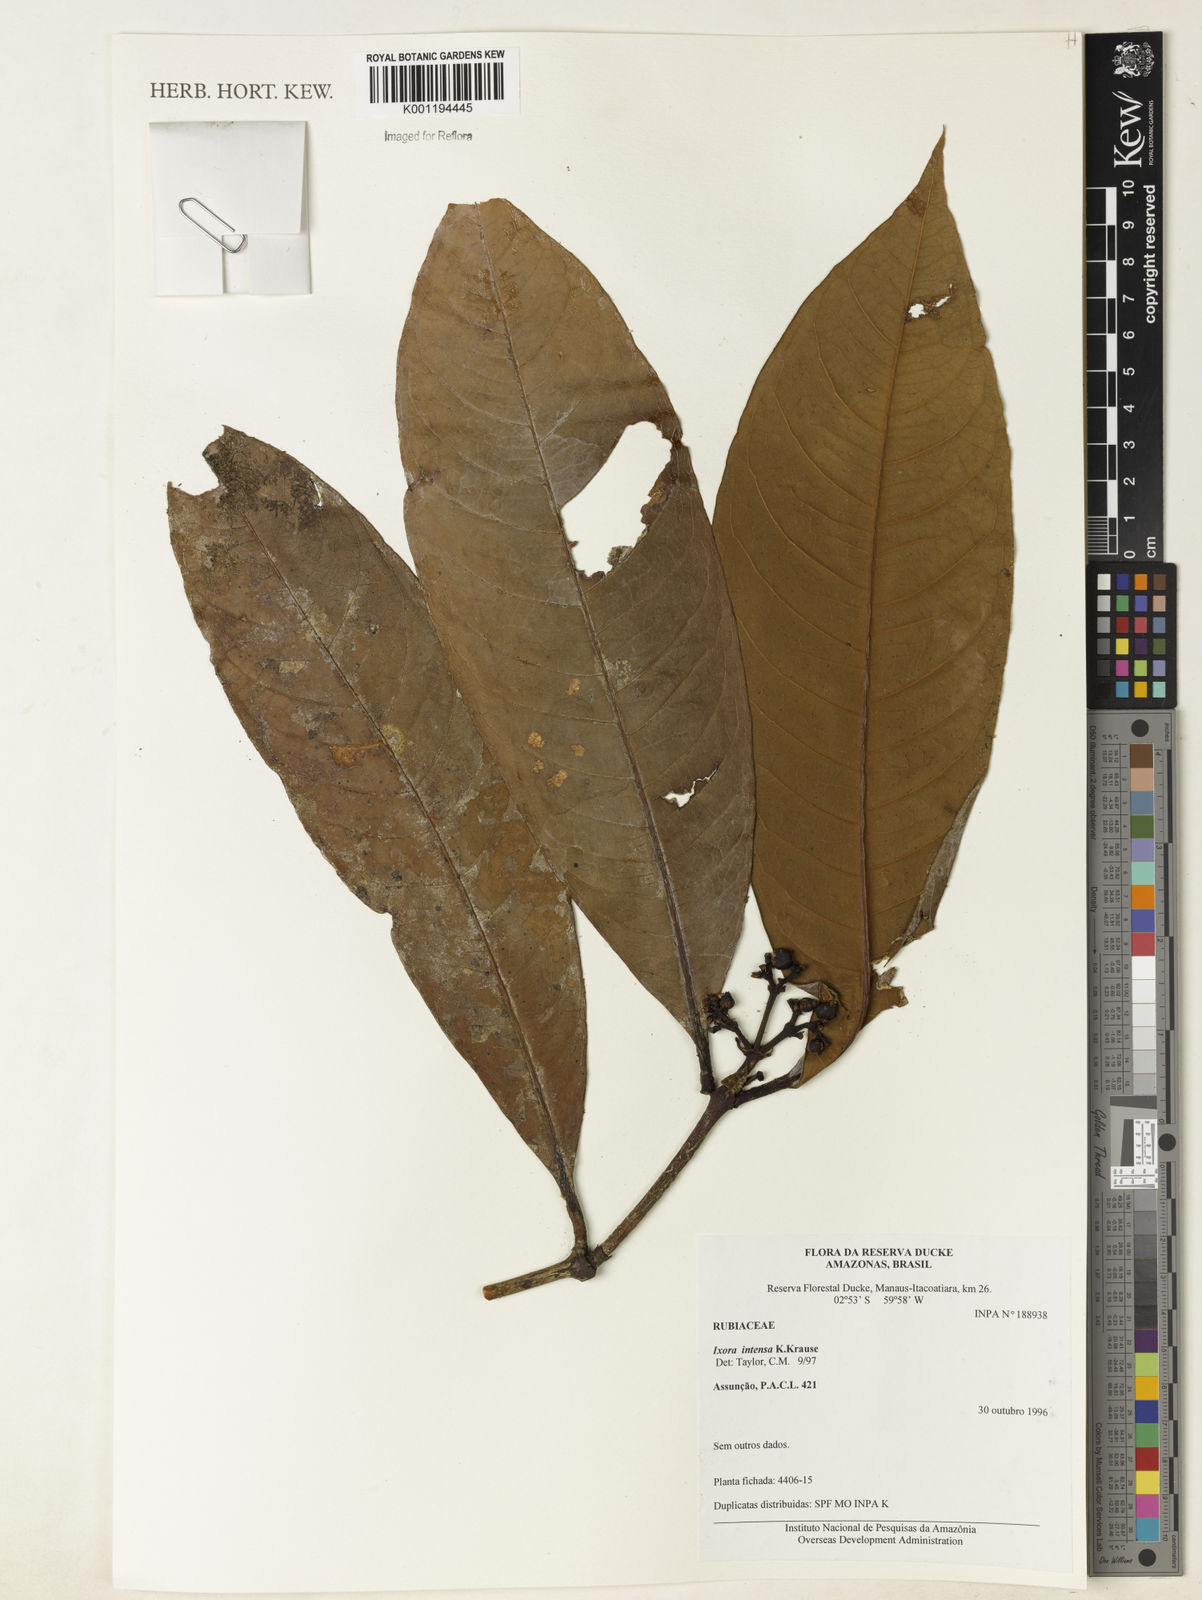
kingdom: Plantae
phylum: Tracheophyta
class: Magnoliopsida
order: Gentianales
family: Rubiaceae
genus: Ixora
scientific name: Ixora intensa
